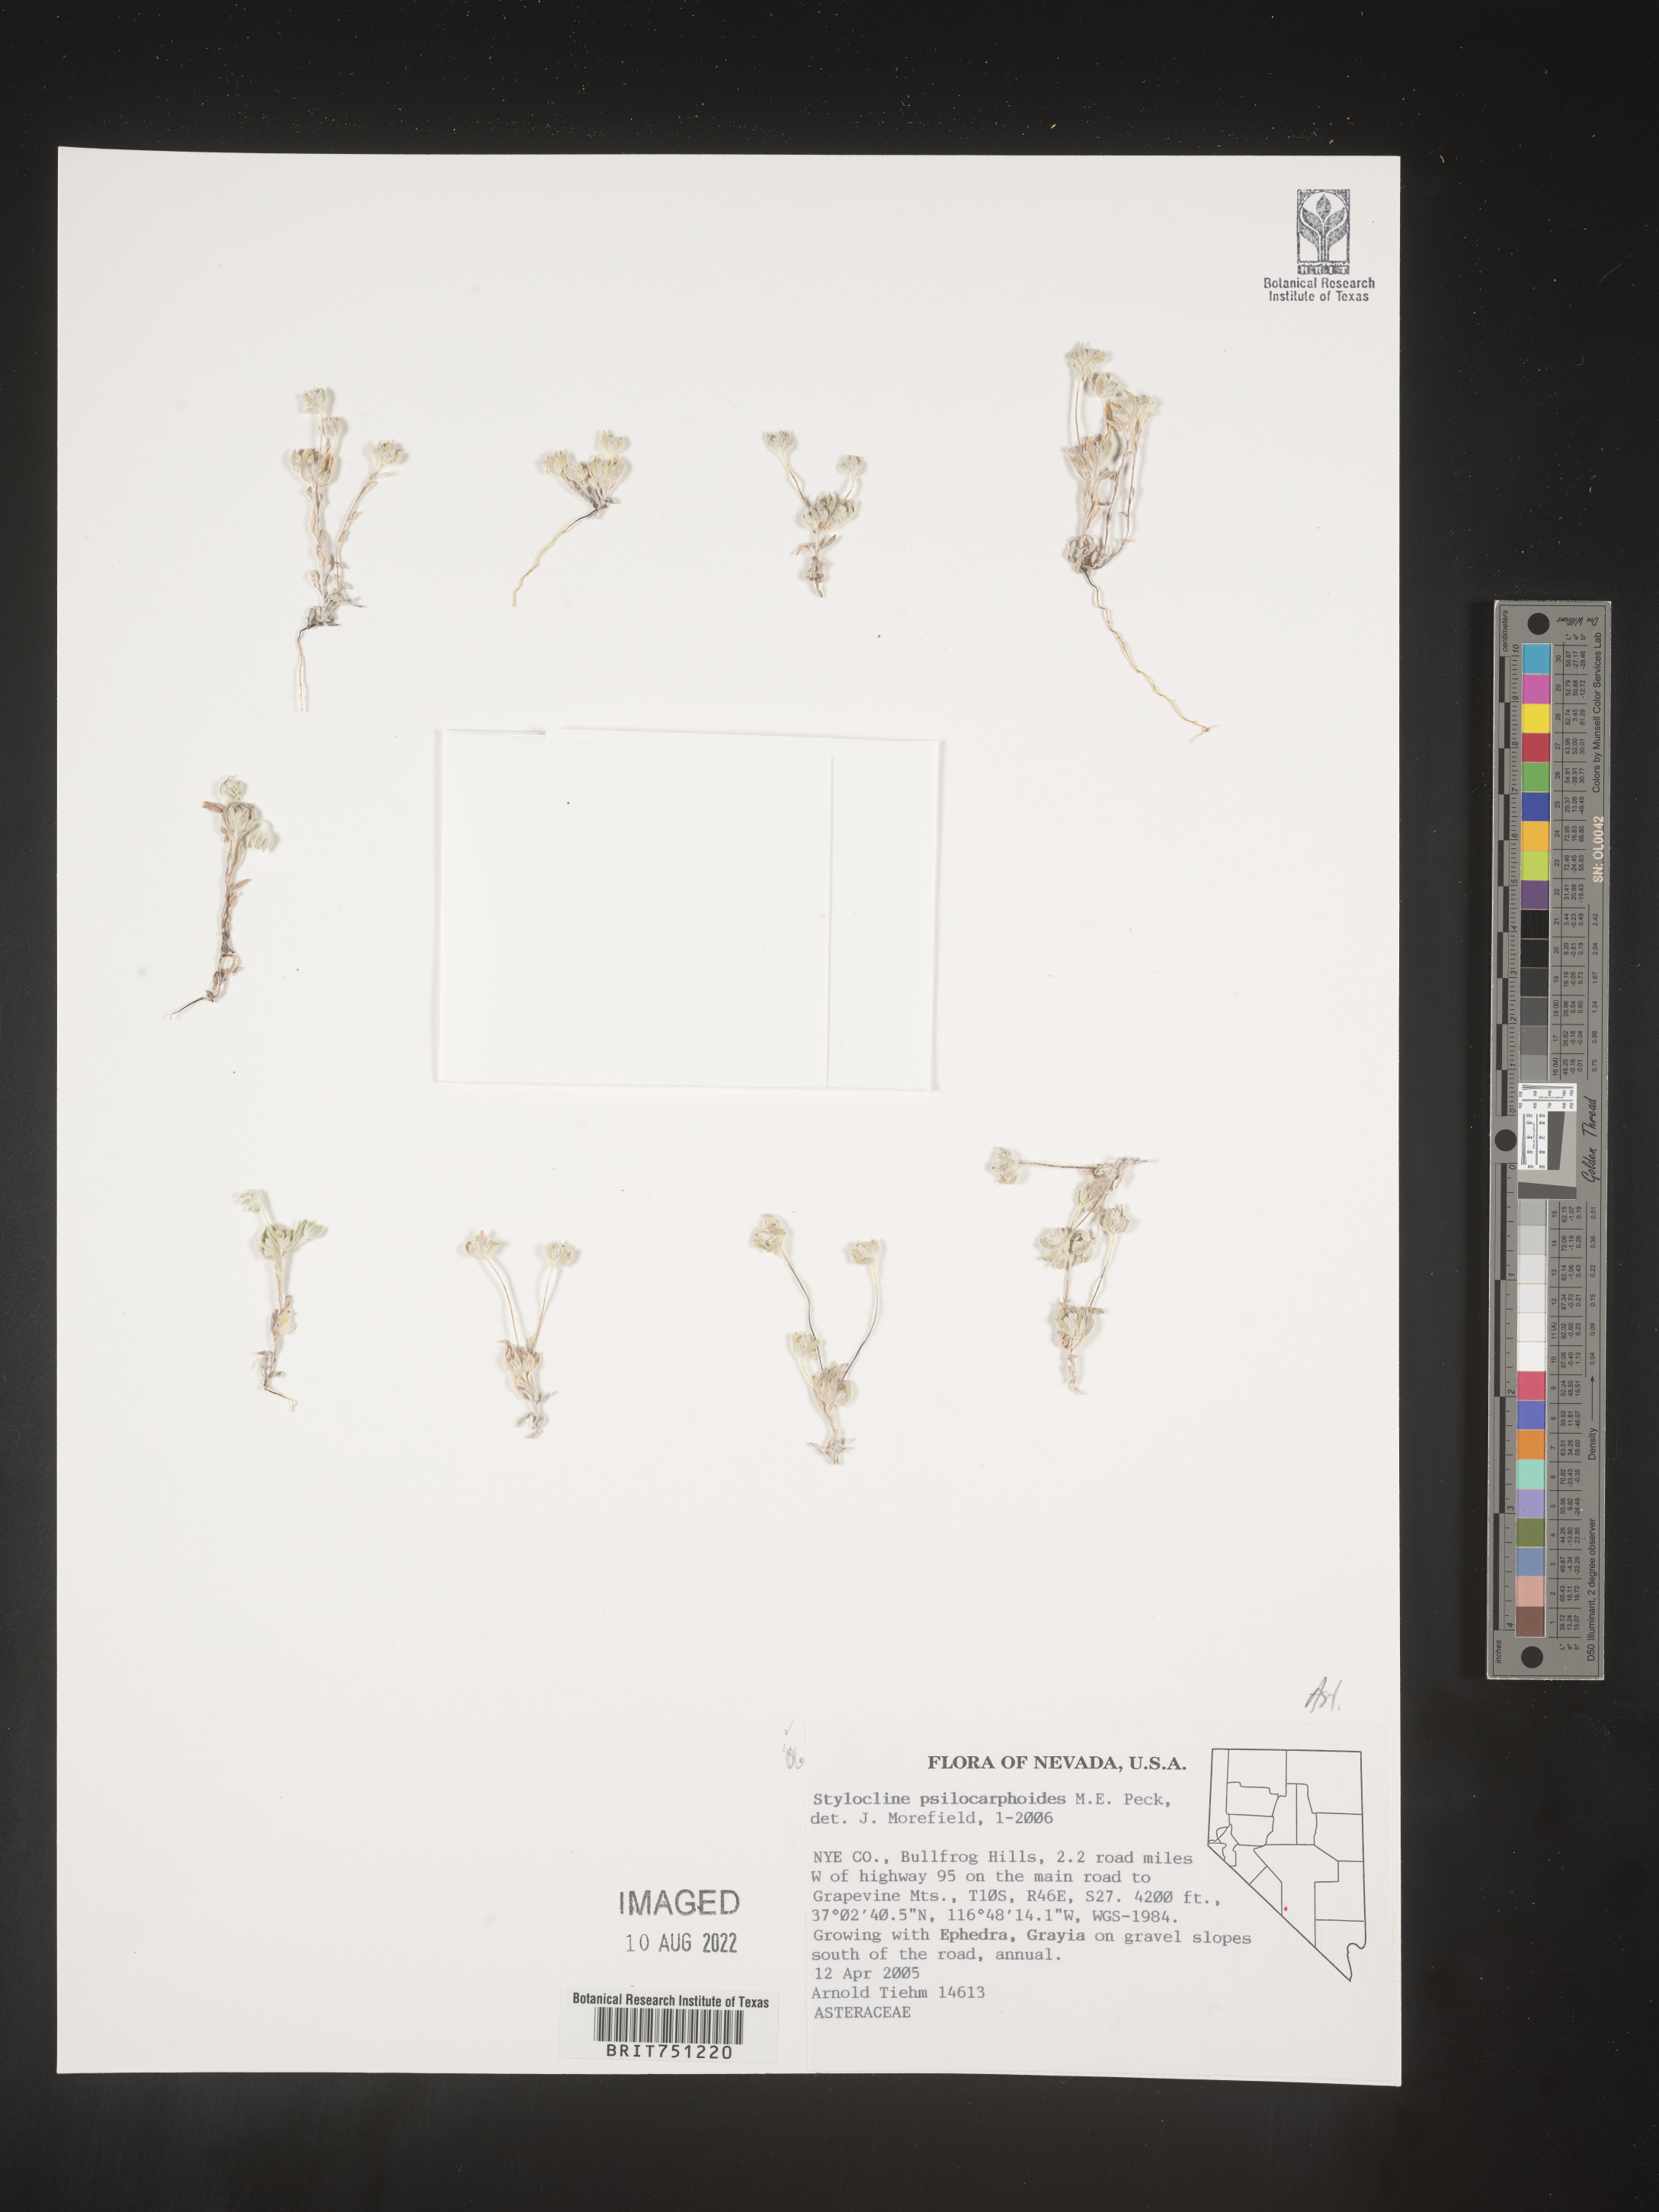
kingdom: Plantae
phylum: Tracheophyta
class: Magnoliopsida
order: Asterales
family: Asteraceae
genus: Stylocline
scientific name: Stylocline
